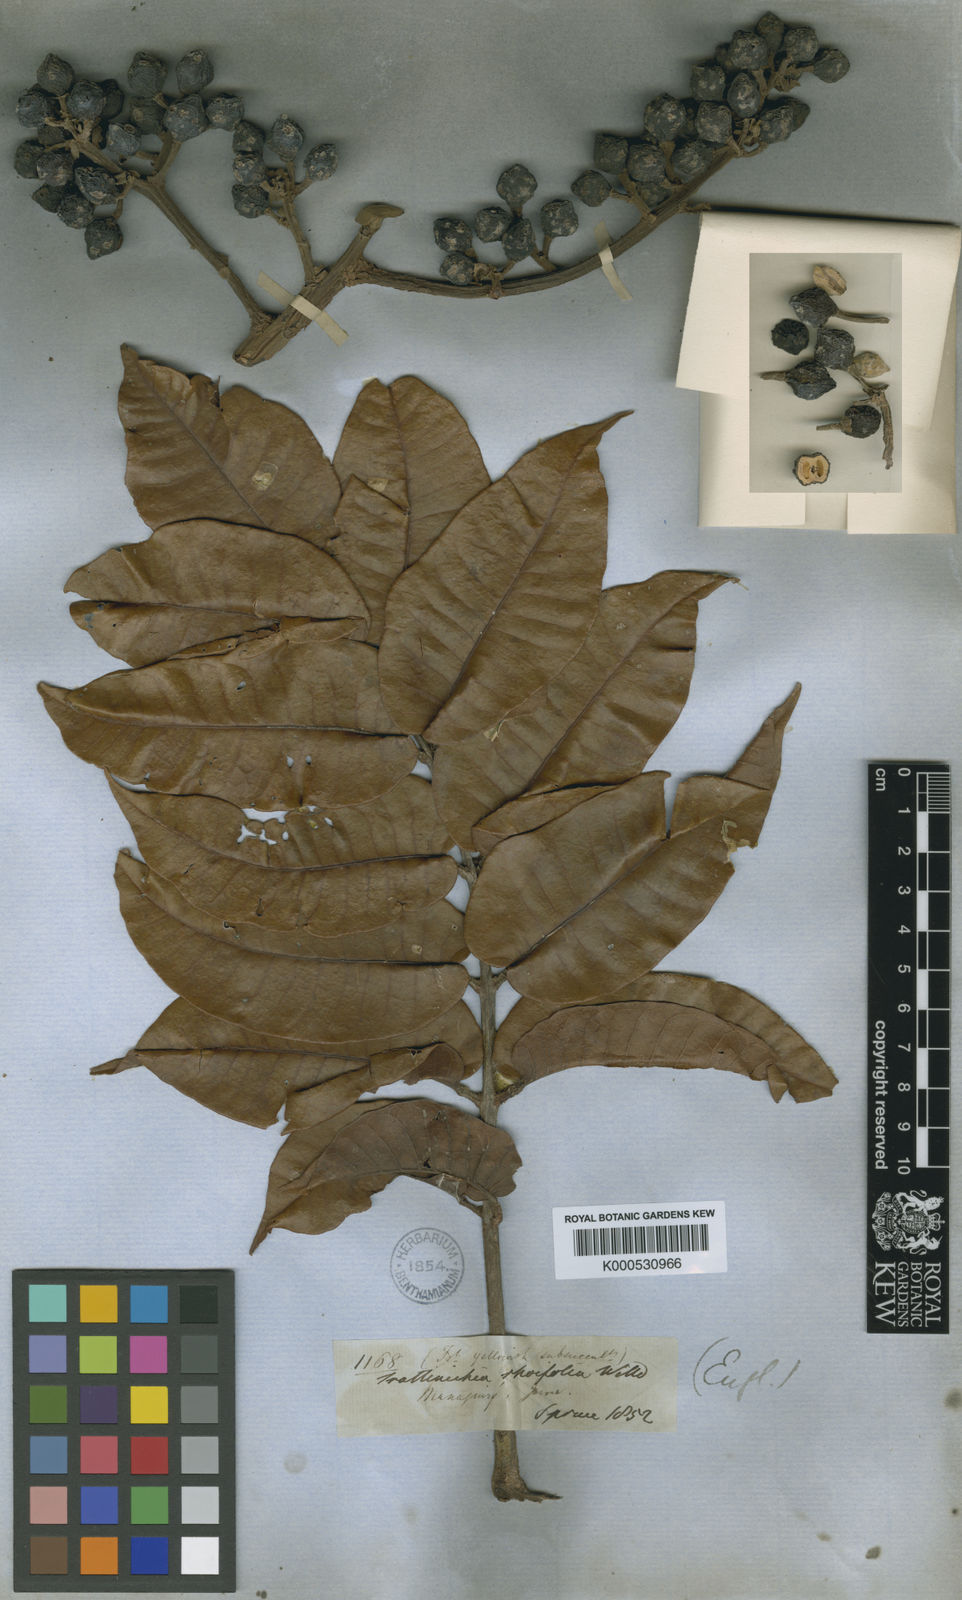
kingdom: Plantae
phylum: Tracheophyta
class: Magnoliopsida
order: Sapindales
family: Burseraceae
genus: Trattinnickia
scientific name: Trattinnickia rhoifolia
